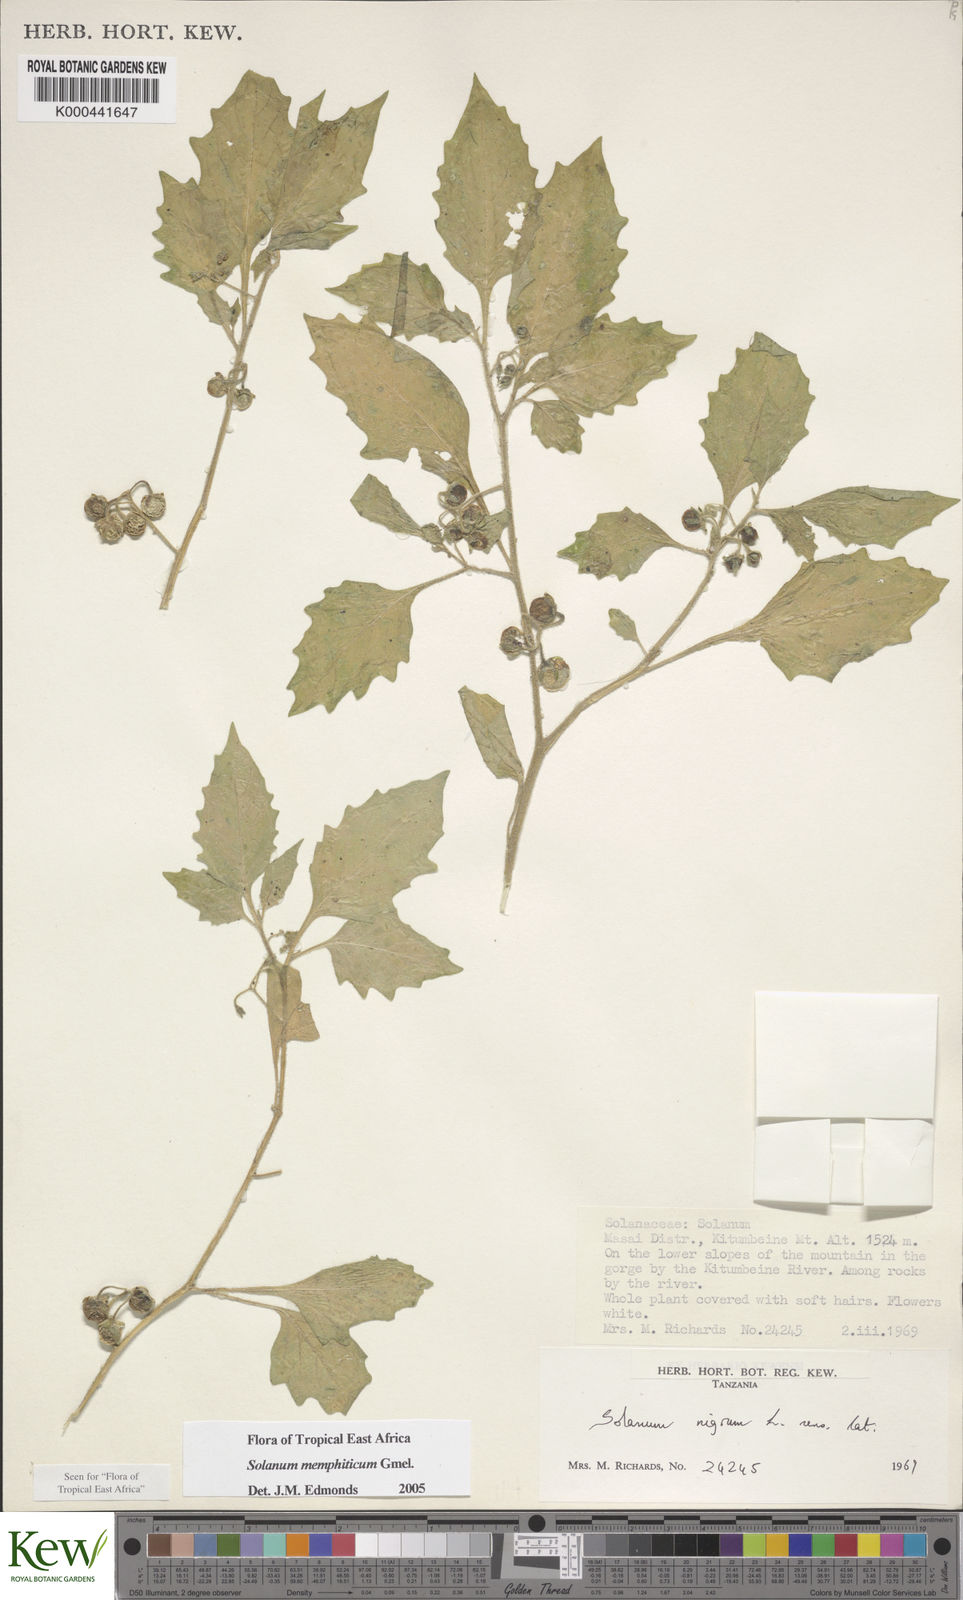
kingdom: Plantae
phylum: Tracheophyta
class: Magnoliopsida
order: Solanales
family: Solanaceae
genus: Solanum
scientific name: Solanum memphiticum
